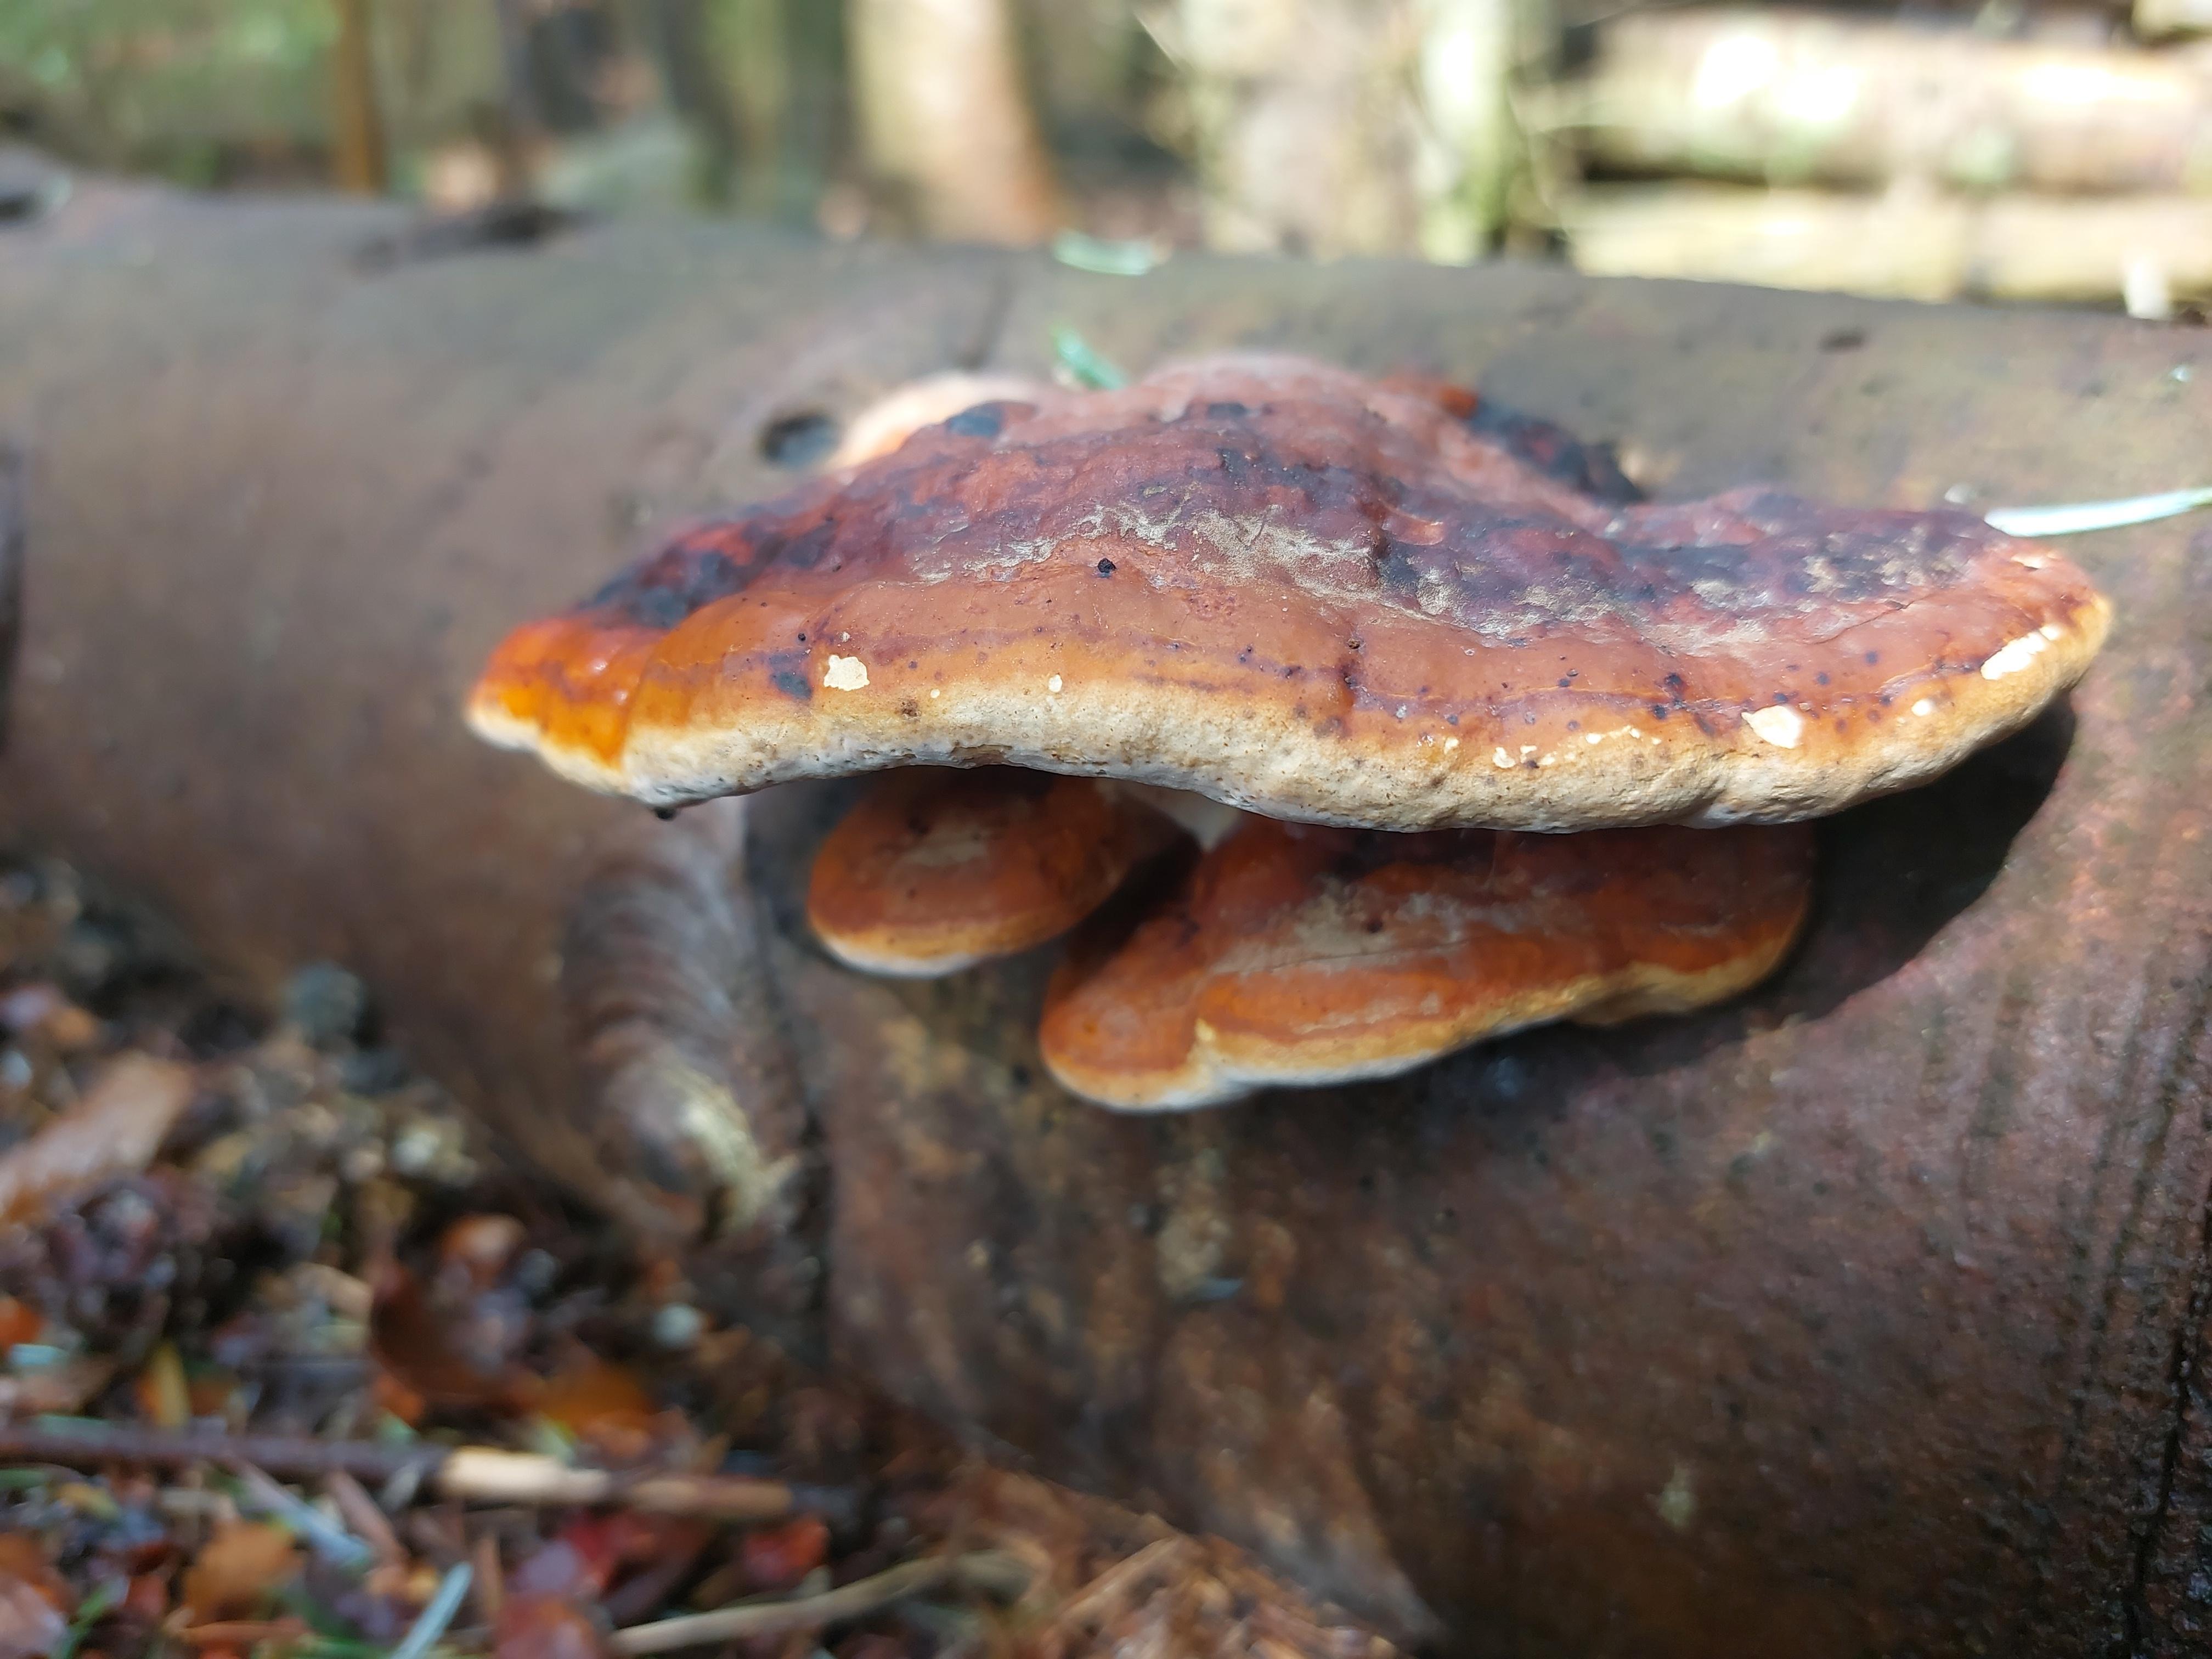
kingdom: Fungi
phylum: Basidiomycota
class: Agaricomycetes
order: Polyporales
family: Fomitopsidaceae
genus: Fomitopsis
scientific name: Fomitopsis pinicola
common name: randbæltet hovporesvamp
